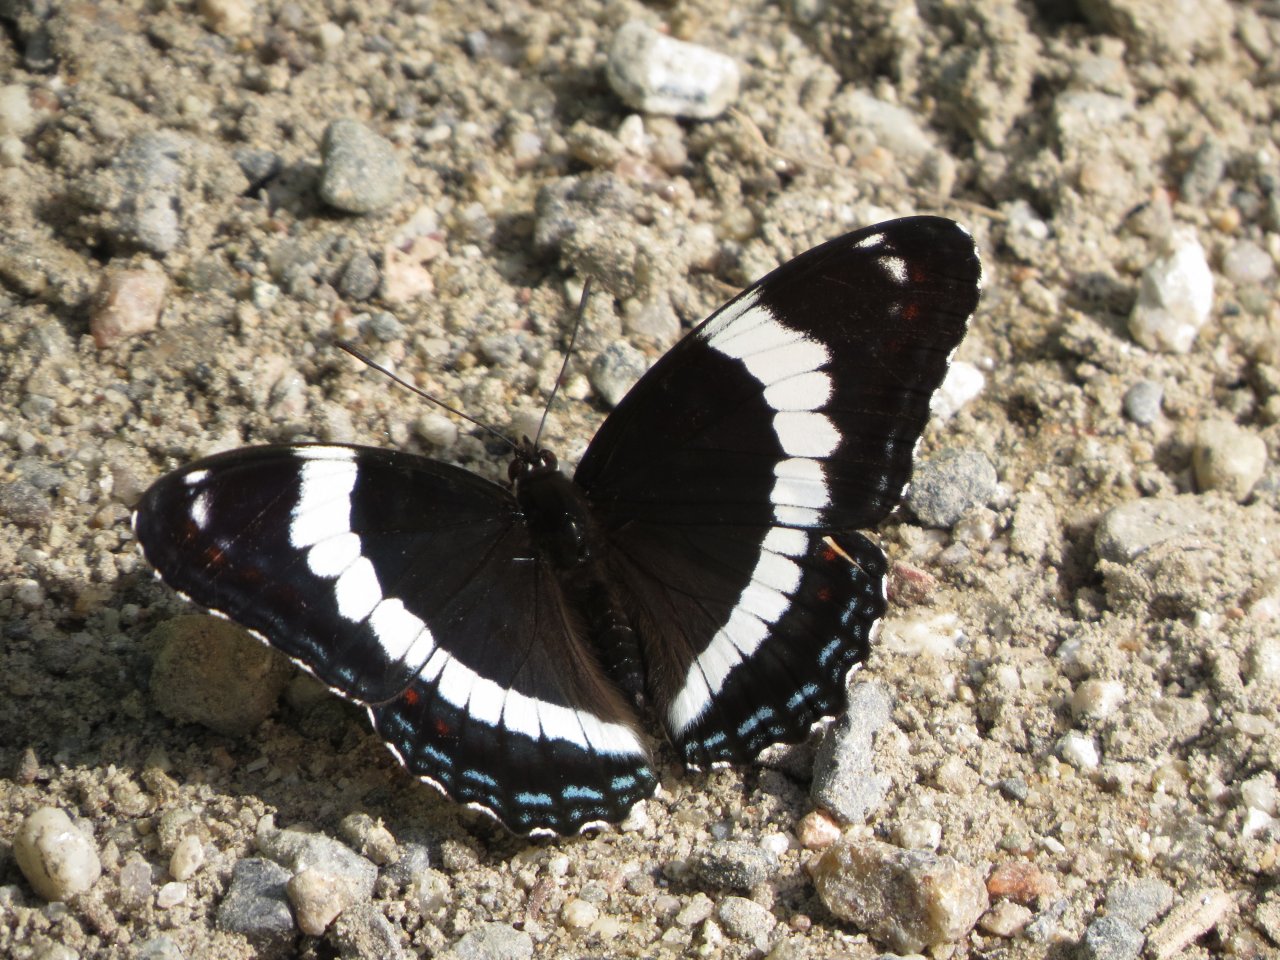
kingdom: Animalia
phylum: Arthropoda
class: Insecta
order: Lepidoptera
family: Nymphalidae
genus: Limenitis
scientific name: Limenitis arthemis
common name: Red-spotted Admiral
